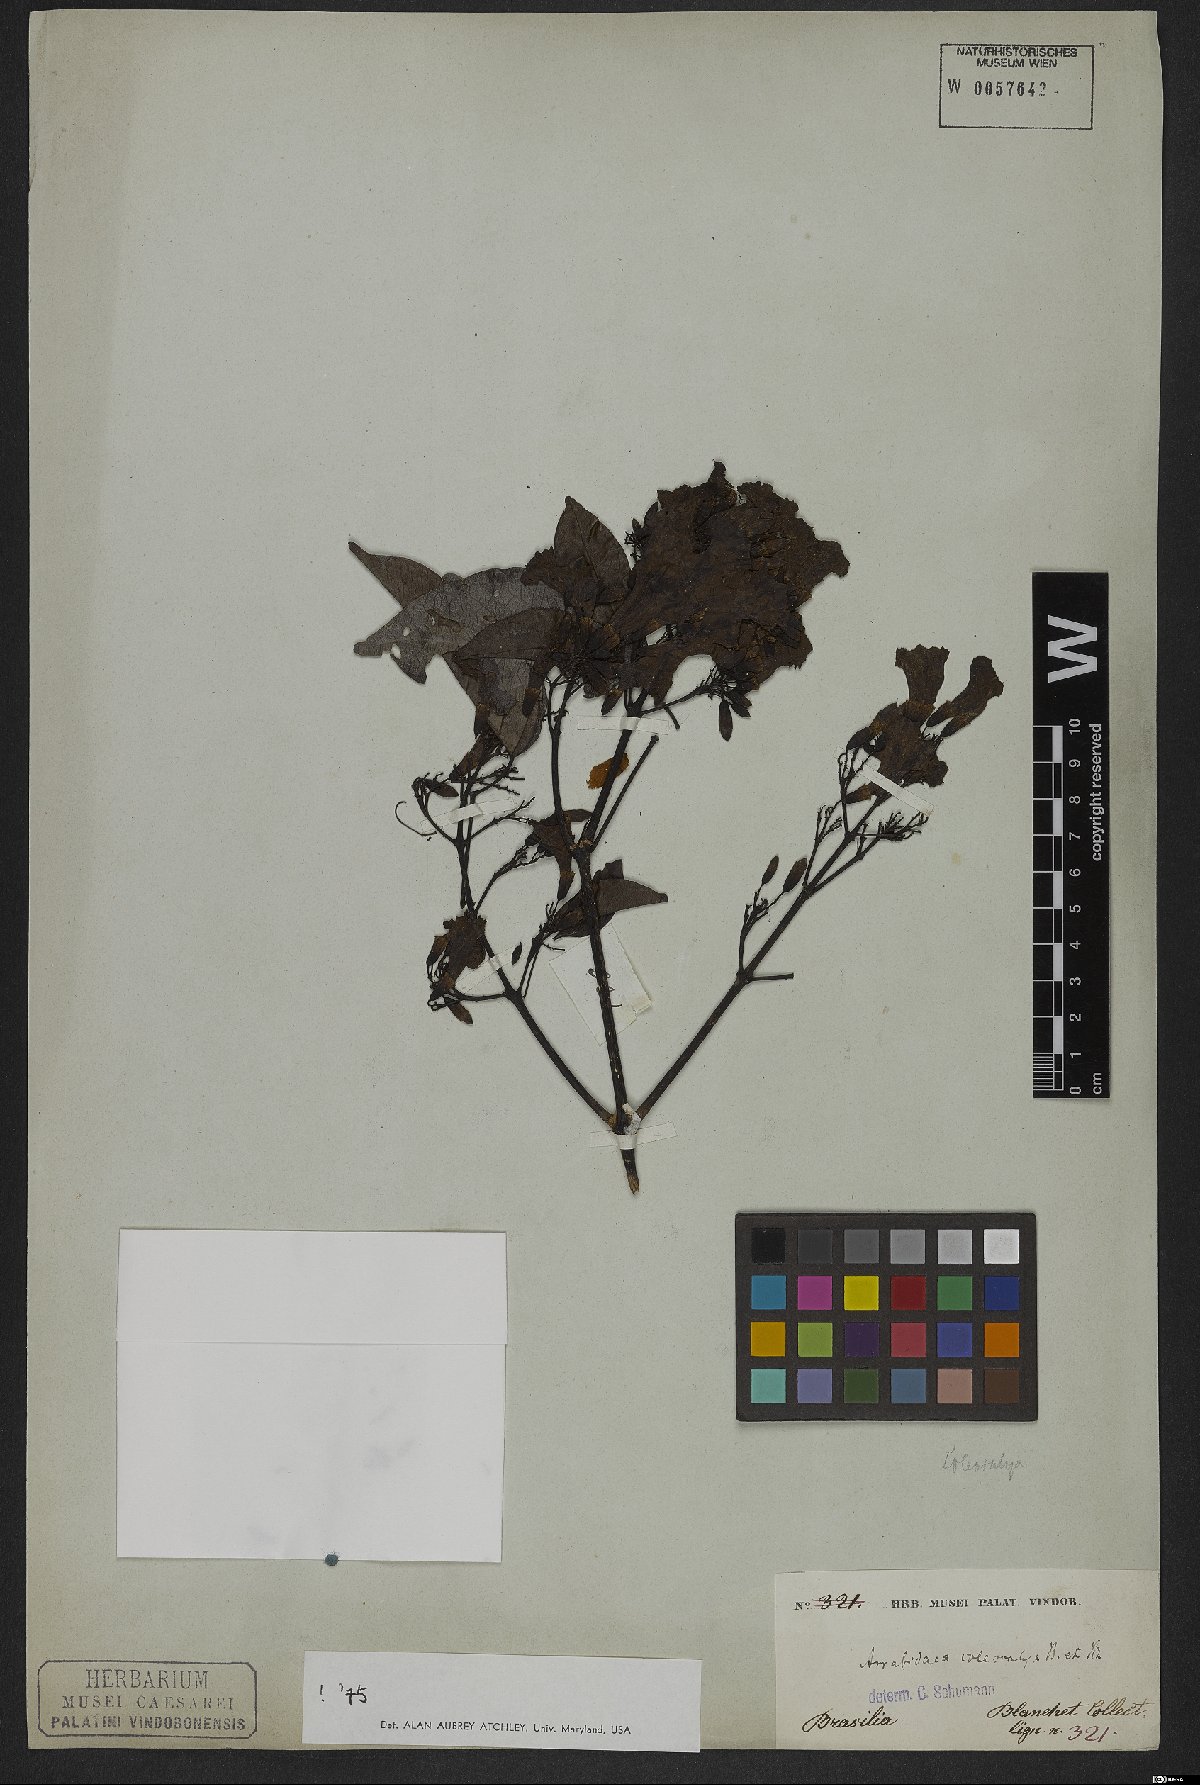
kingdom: Plantae
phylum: Tracheophyta
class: Magnoliopsida
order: Lamiales
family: Bignoniaceae
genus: Fridericia
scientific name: Fridericia caudigera
